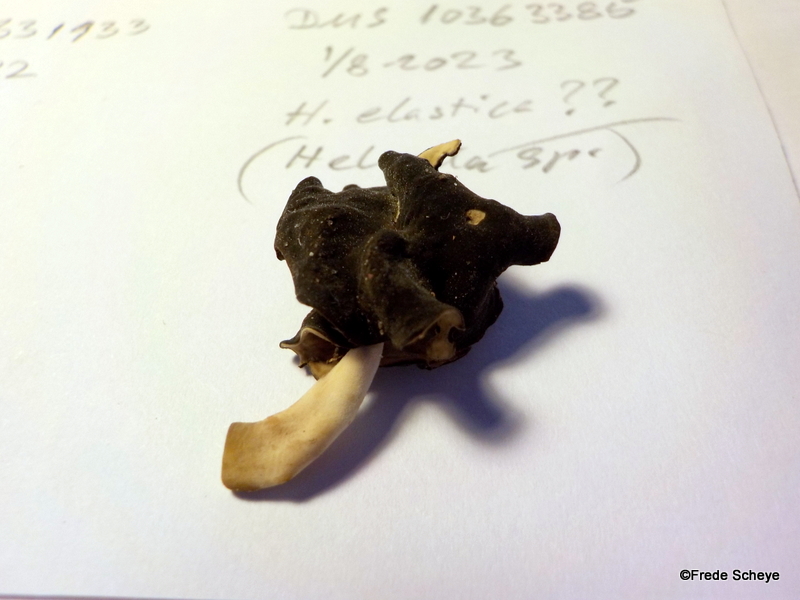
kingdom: Fungi
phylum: Ascomycota
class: Pezizomycetes
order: Pezizales
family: Helvellaceae
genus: Helvella
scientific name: Helvella
